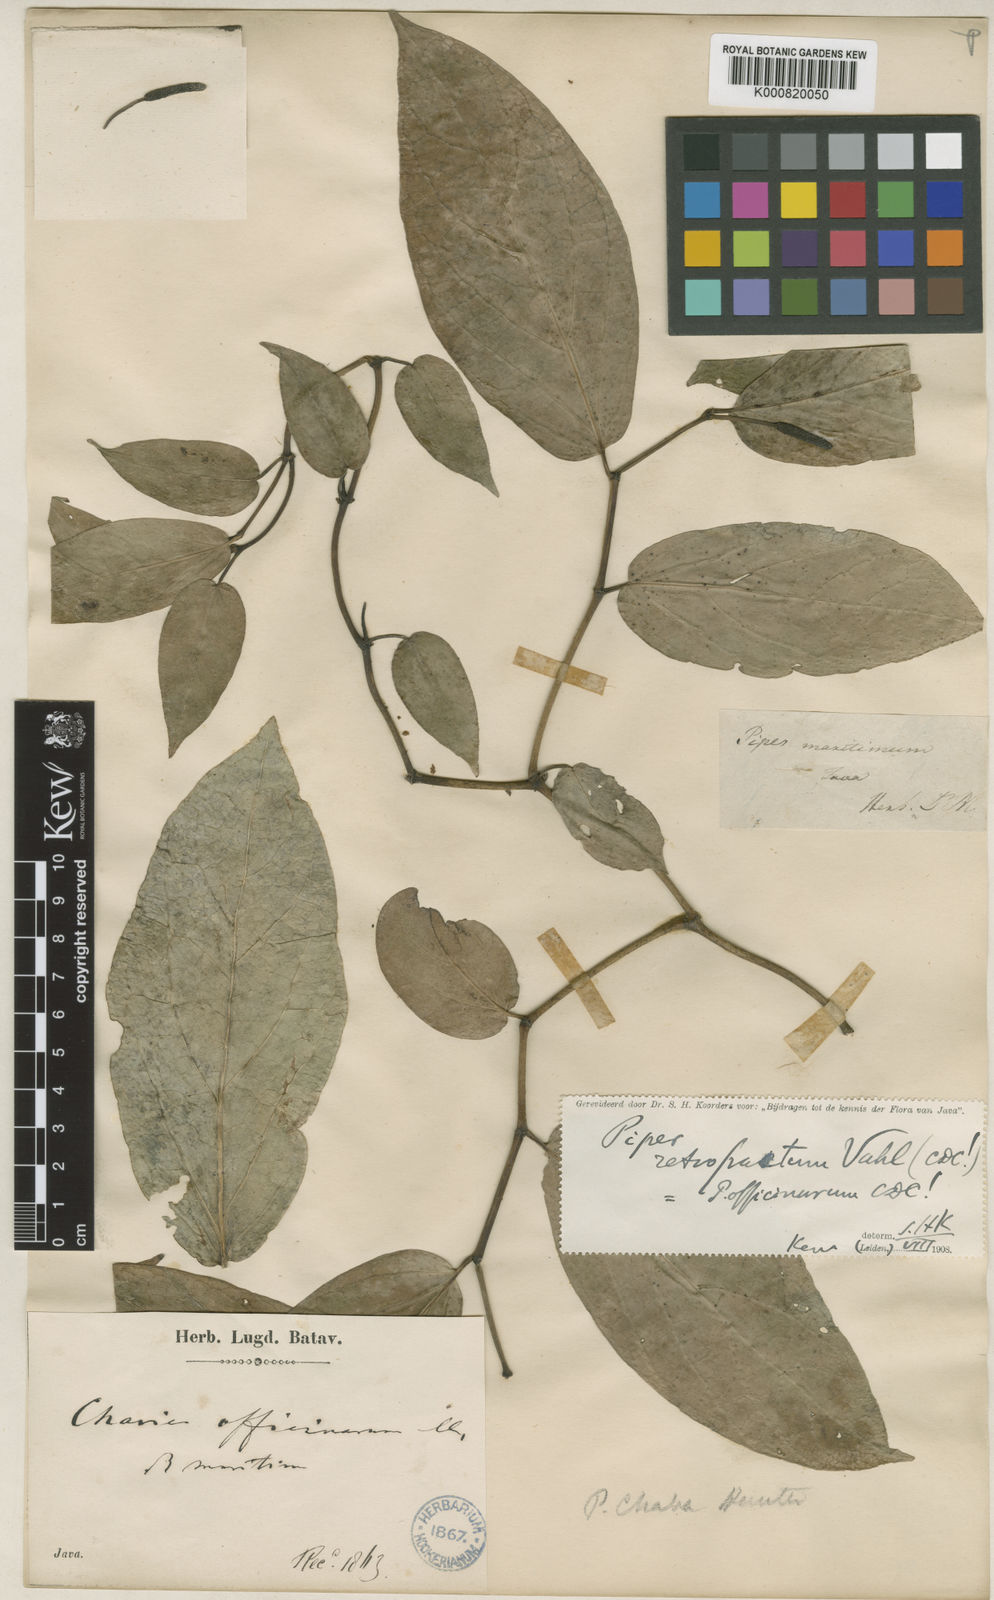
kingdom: Plantae
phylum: Tracheophyta
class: Magnoliopsida
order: Piperales
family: Piperaceae
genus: Piper
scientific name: Piper retrofractum
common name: Javanese long pepper
